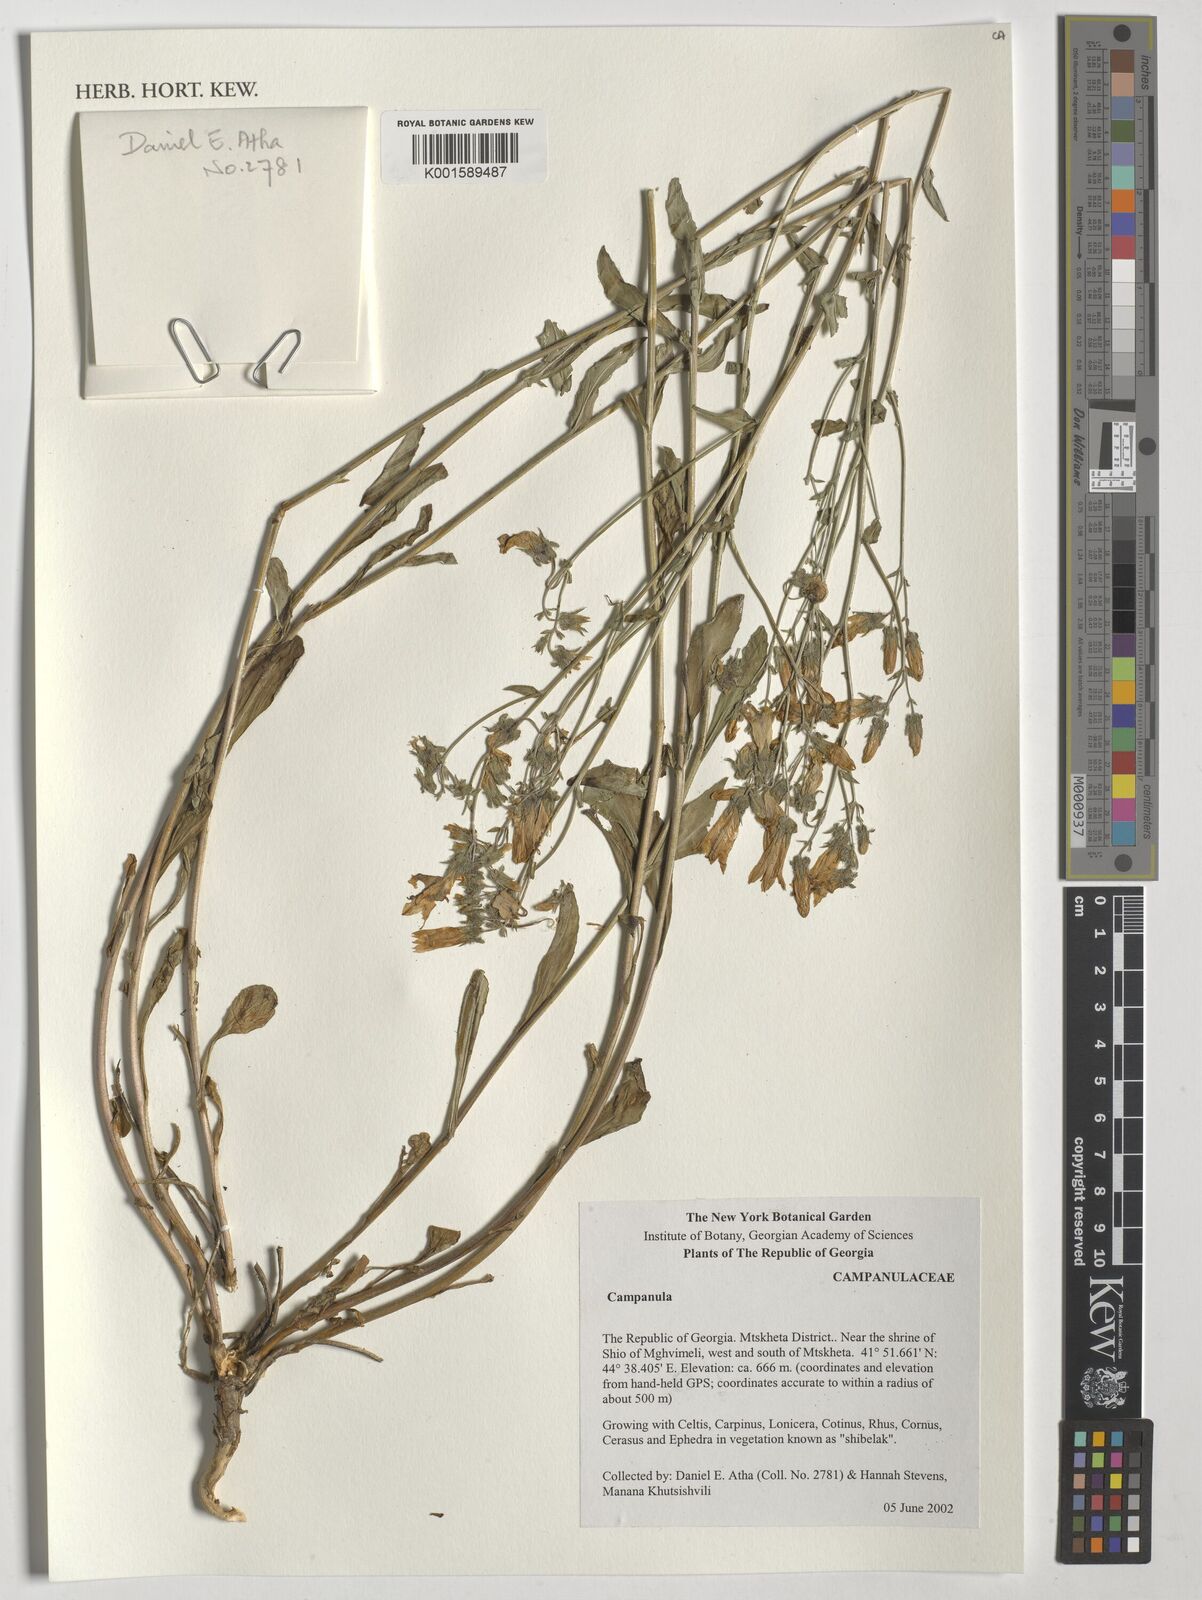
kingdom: Plantae
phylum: Tracheophyta
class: Magnoliopsida
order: Asterales
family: Campanulaceae
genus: Campanula
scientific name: Campanula
